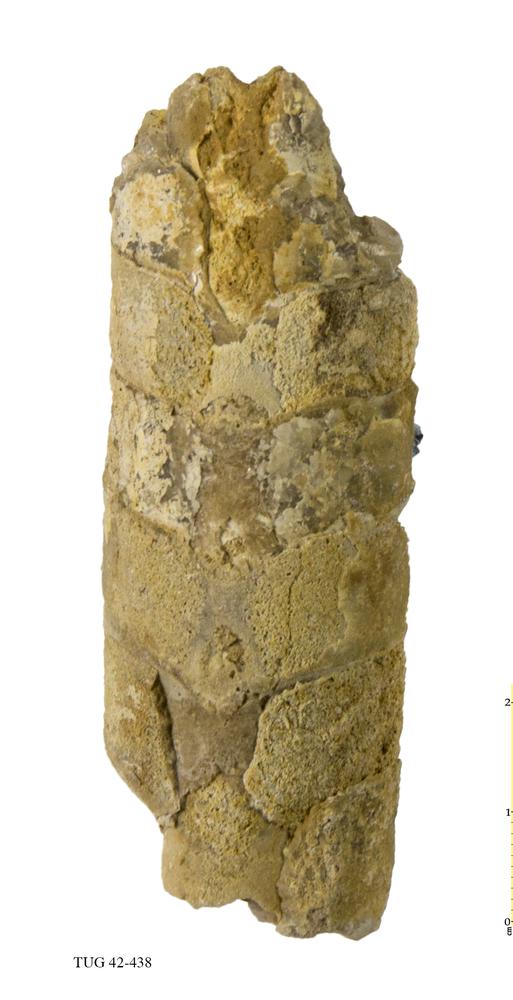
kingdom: Animalia
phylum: Mollusca
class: Cephalopoda
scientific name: Cephalopoda
